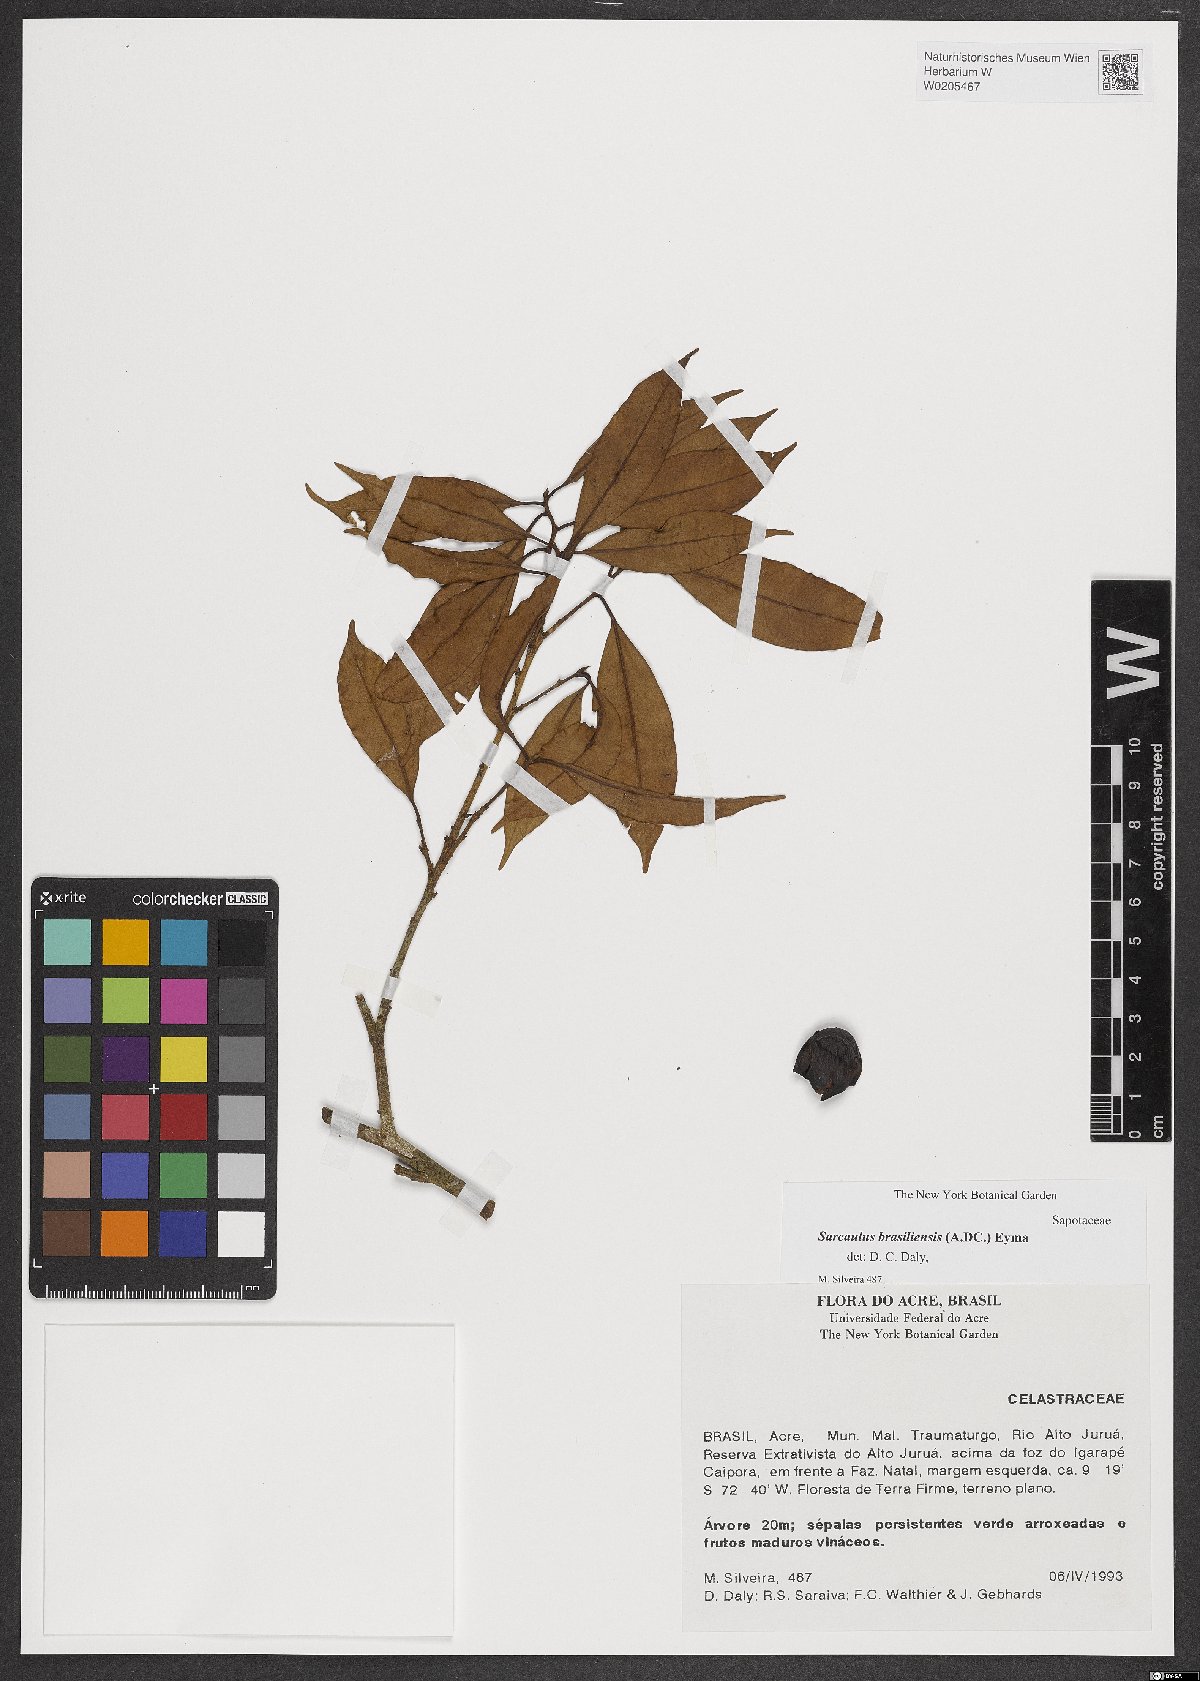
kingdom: Plantae
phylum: Tracheophyta
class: Magnoliopsida
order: Ericales
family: Sapotaceae
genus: Sarcaulus
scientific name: Sarcaulus brasiliensis
